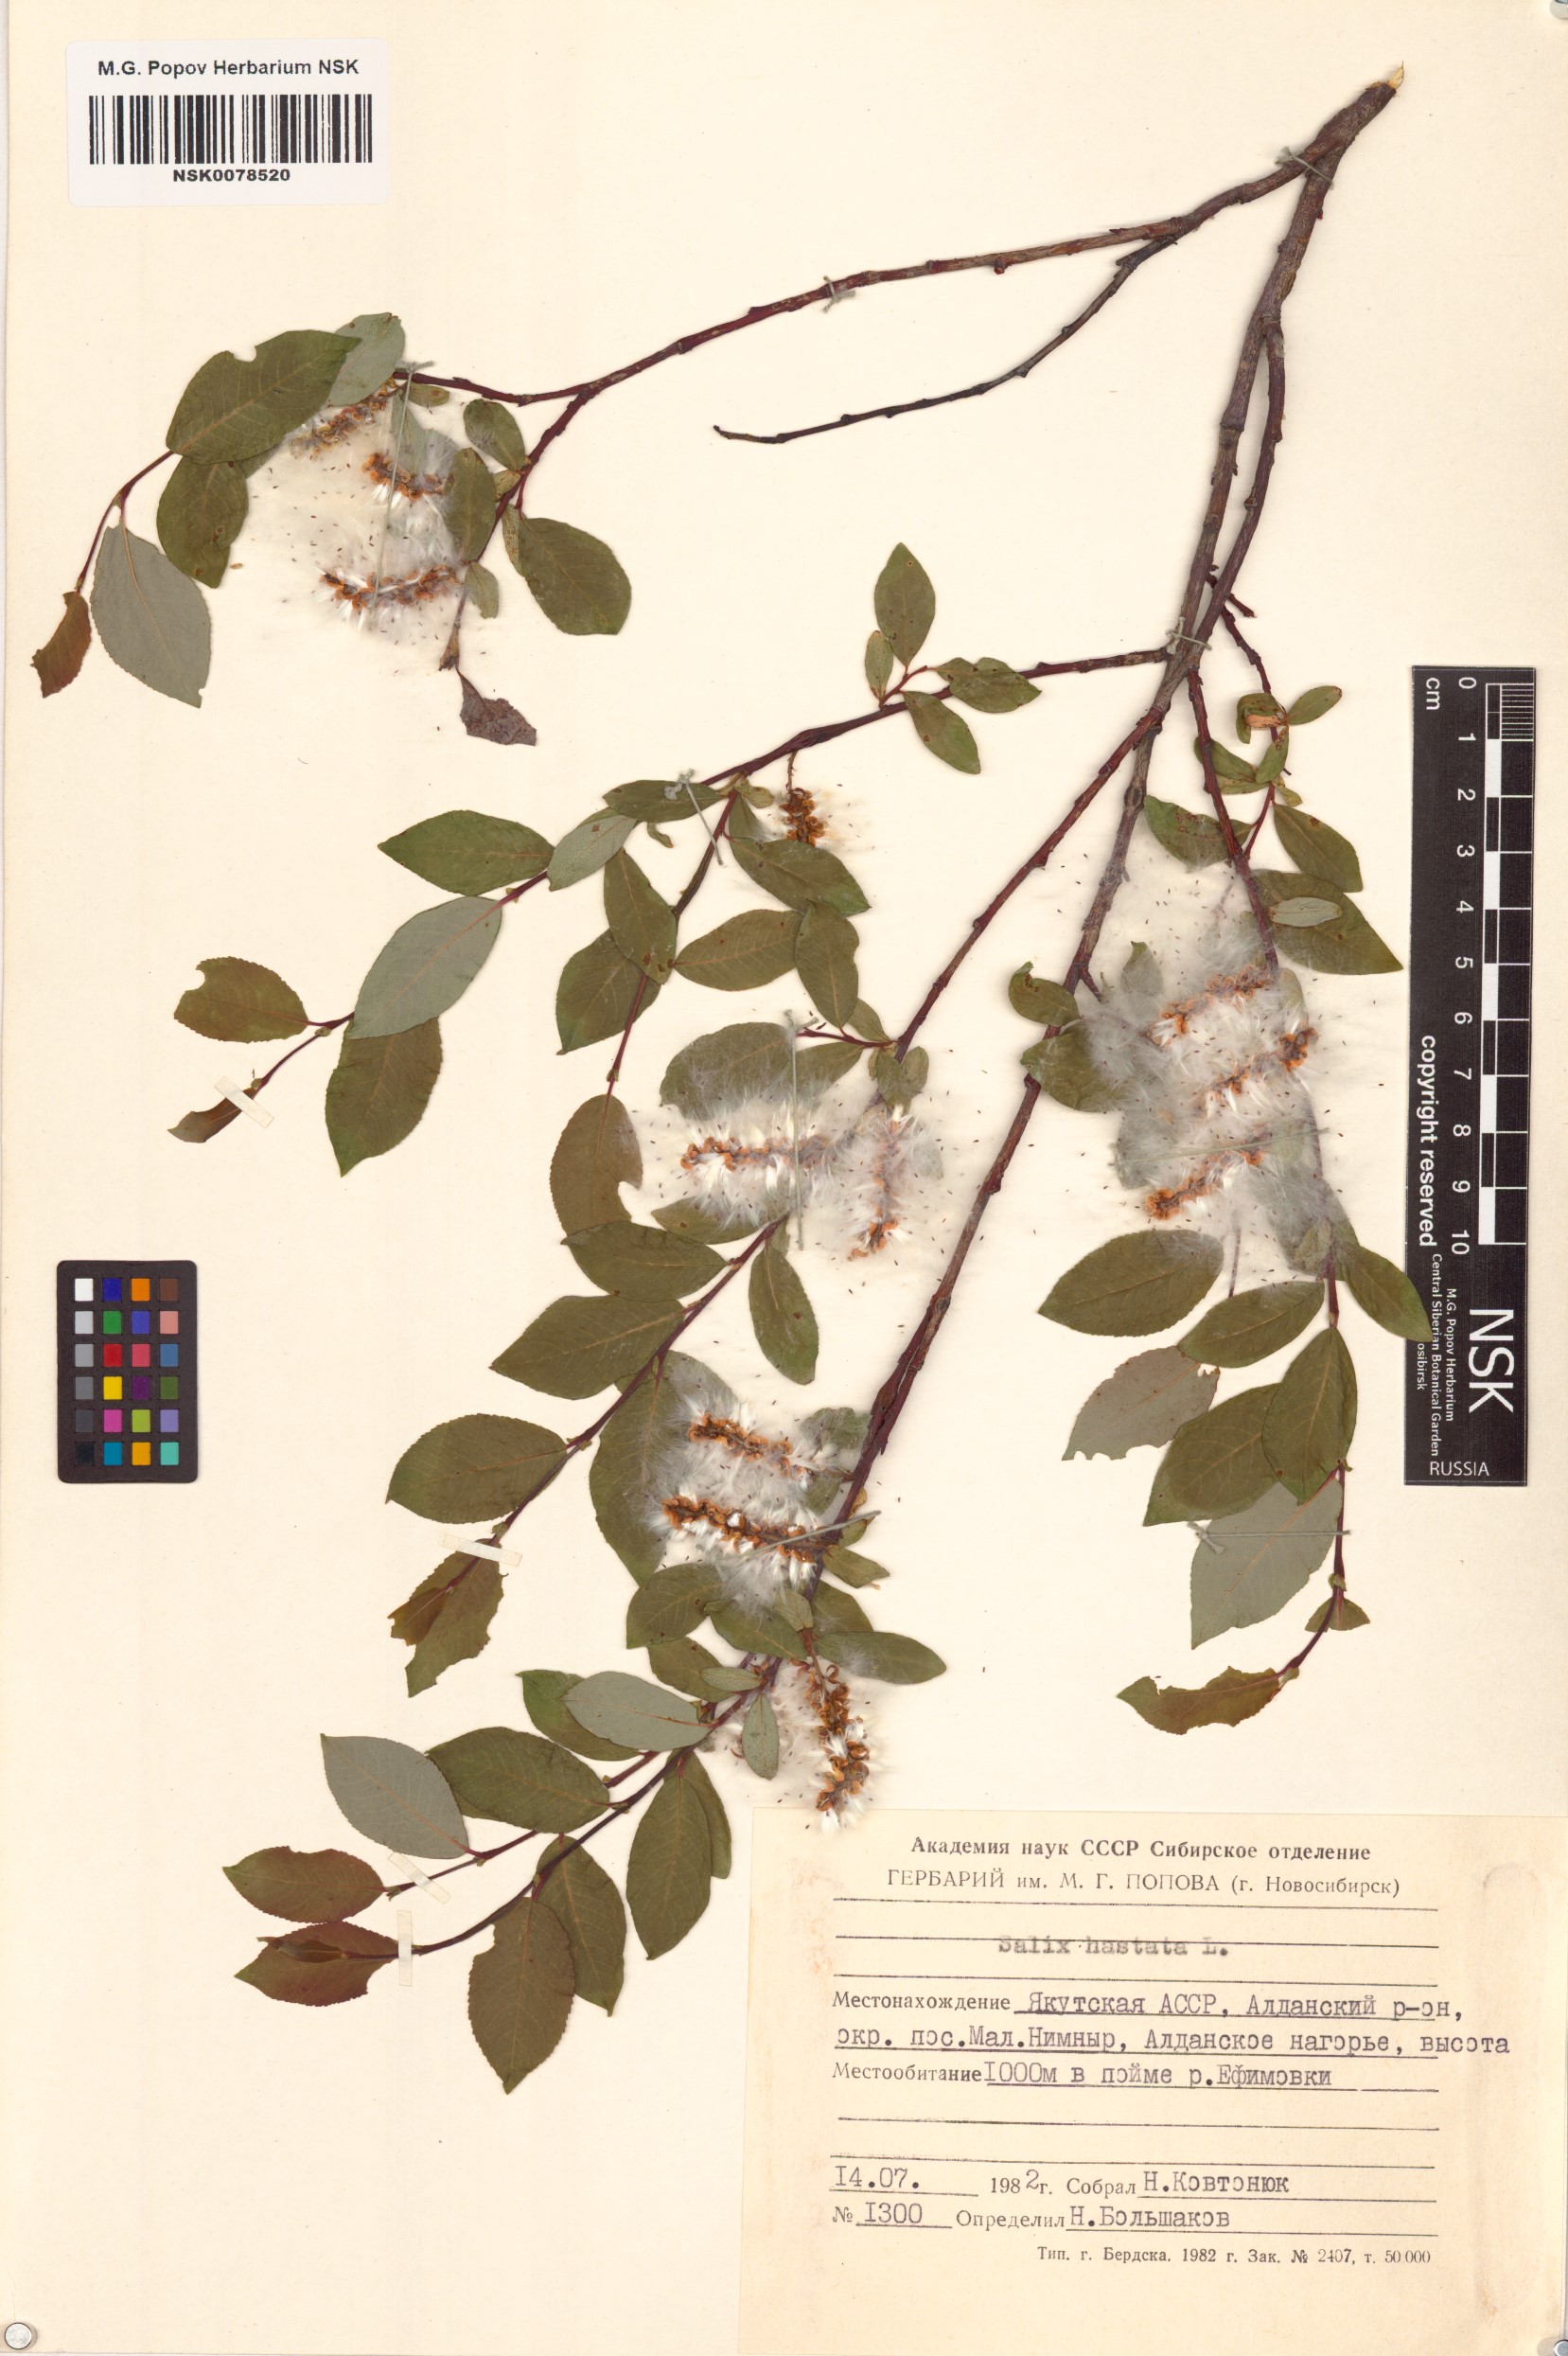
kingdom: Plantae
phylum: Tracheophyta
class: Magnoliopsida
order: Malpighiales
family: Salicaceae
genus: Salix
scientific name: Salix hastata
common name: Halberd willow
